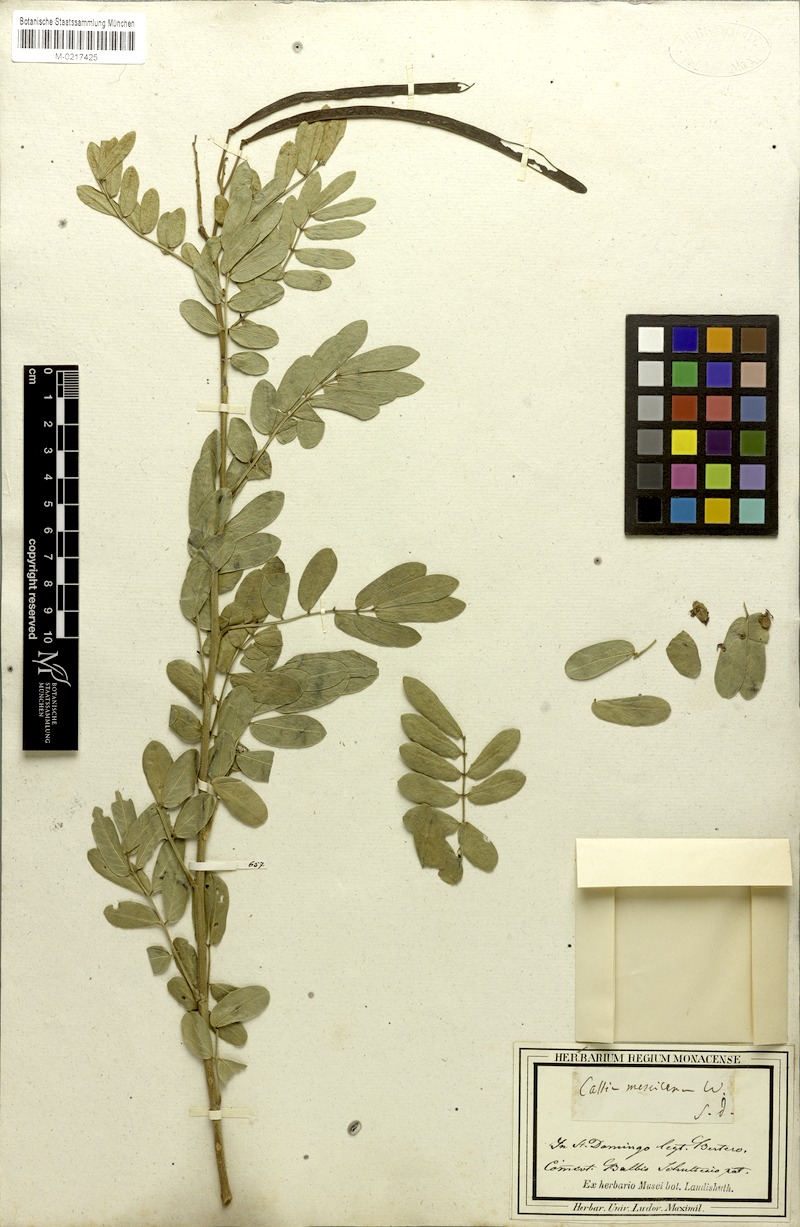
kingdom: Plantae
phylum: Tracheophyta
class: Magnoliopsida
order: Fabales
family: Fabaceae
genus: Senna
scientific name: Senna mexicana
